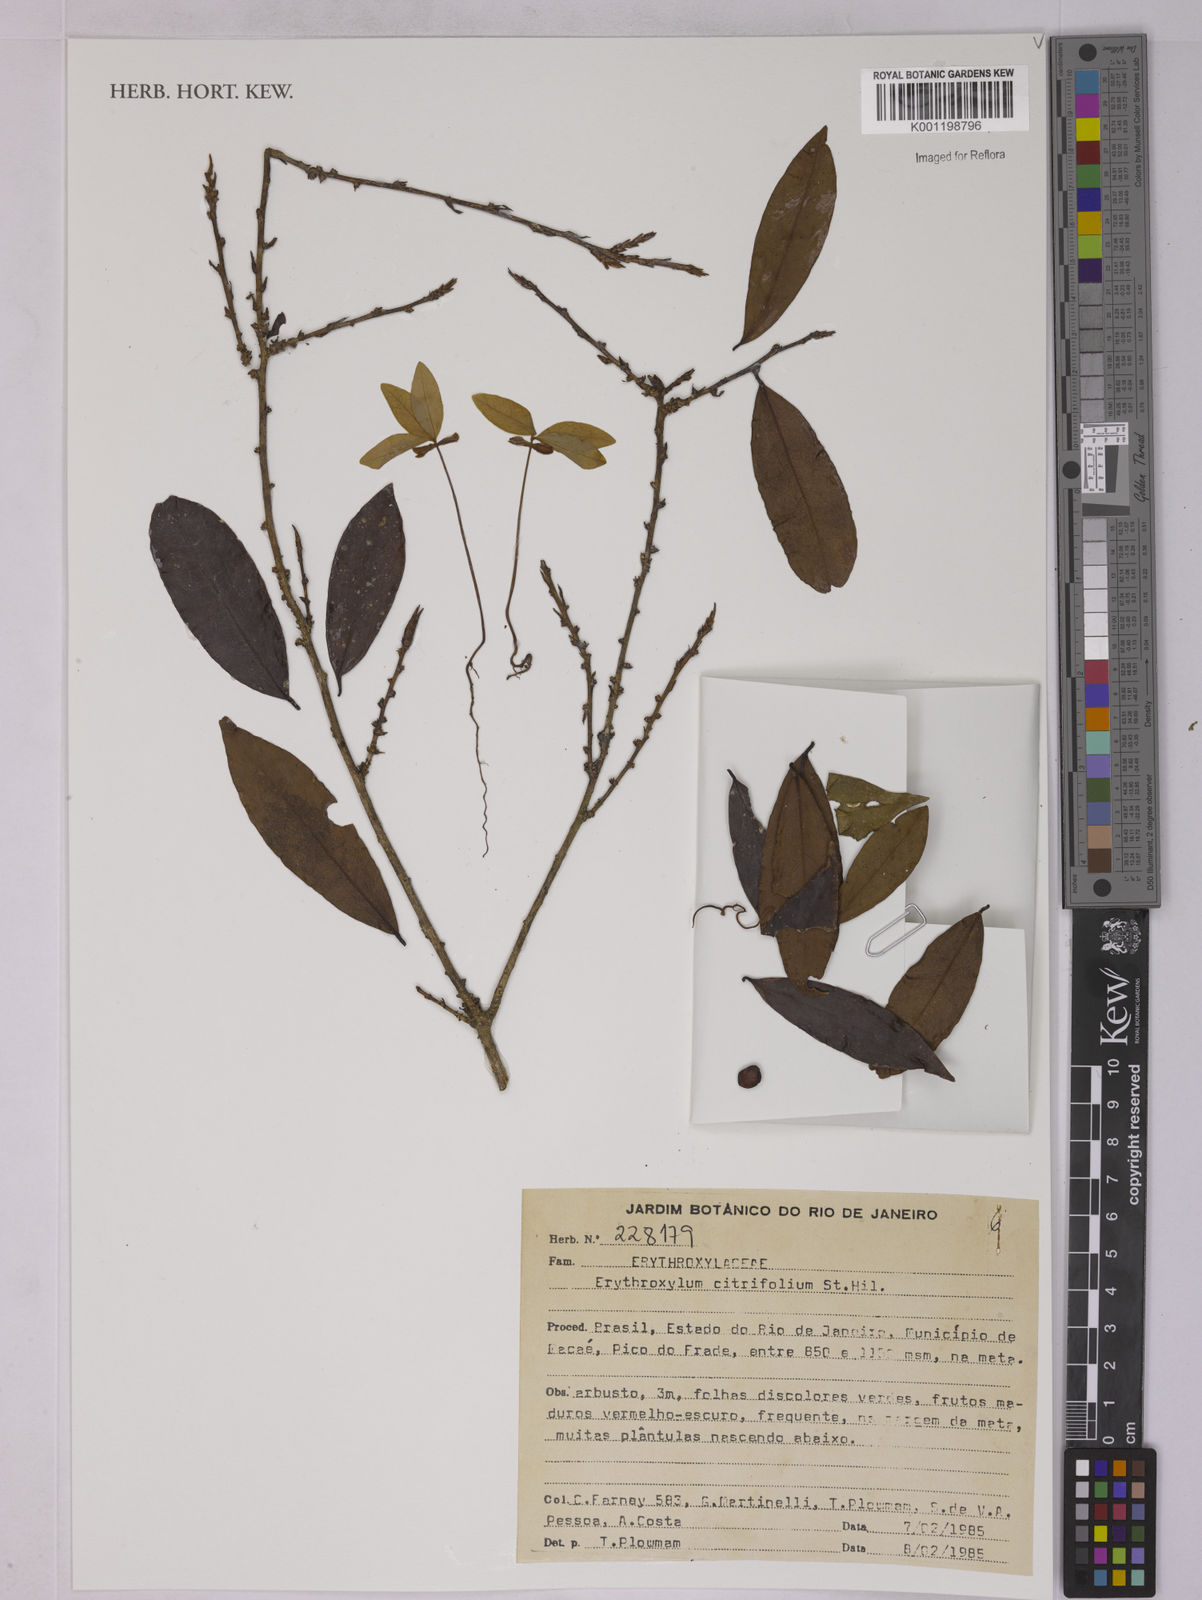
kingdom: Plantae
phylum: Tracheophyta
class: Magnoliopsida
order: Malpighiales
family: Erythroxylaceae
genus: Erythroxylum
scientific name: Erythroxylum citrifolium
